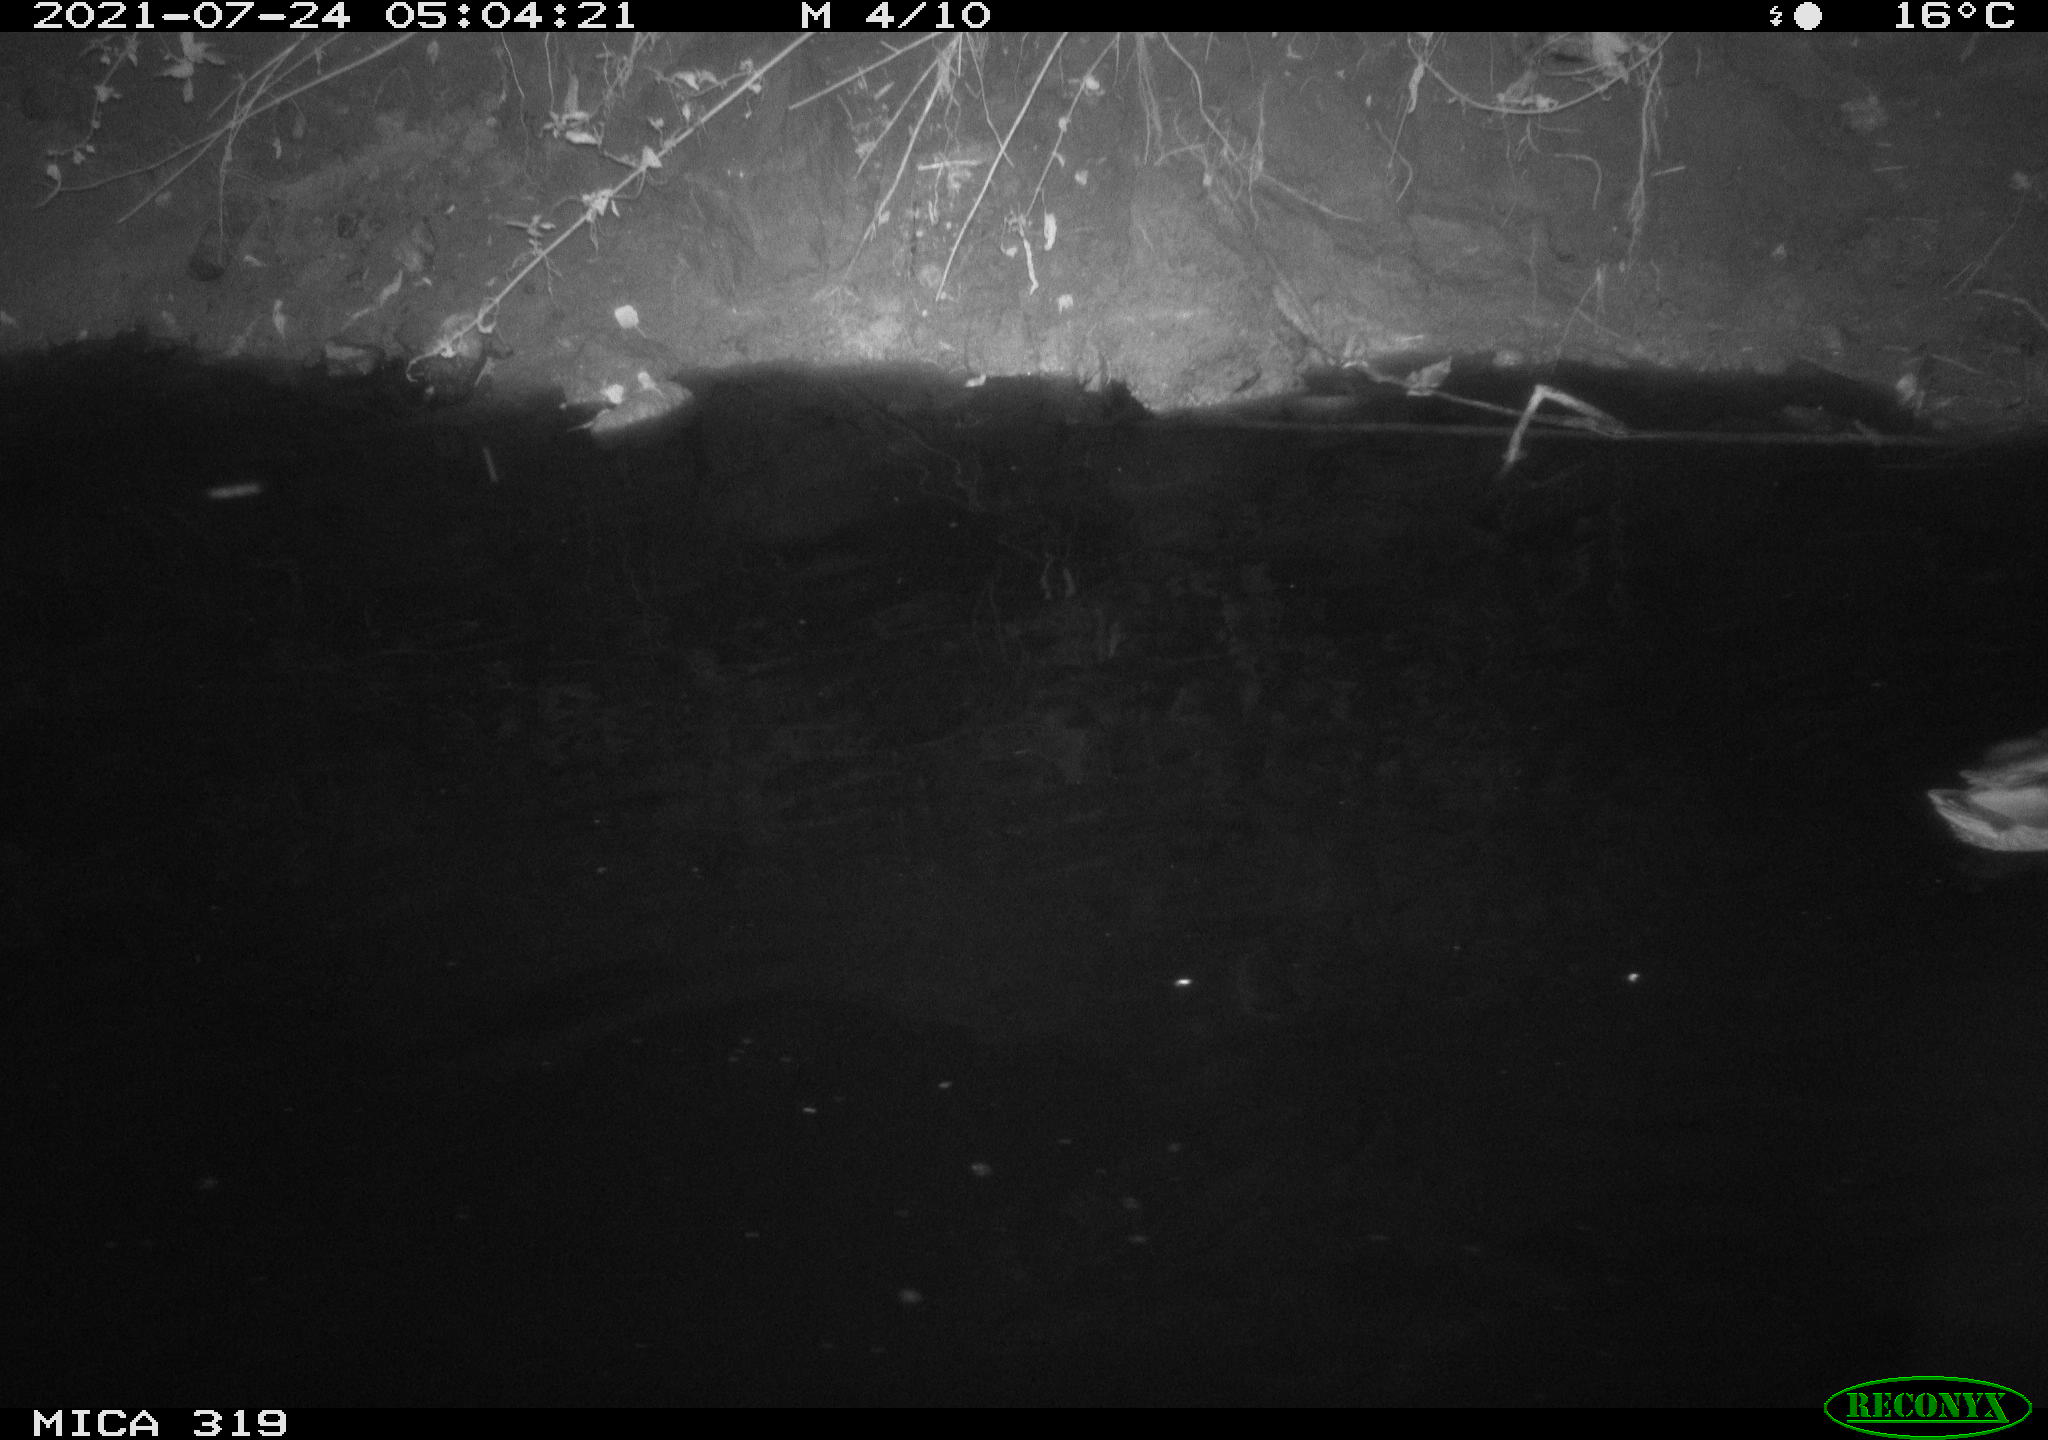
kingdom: Animalia
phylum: Chordata
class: Aves
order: Anseriformes
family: Anatidae
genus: Anas
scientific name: Anas platyrhynchos
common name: Mallard
